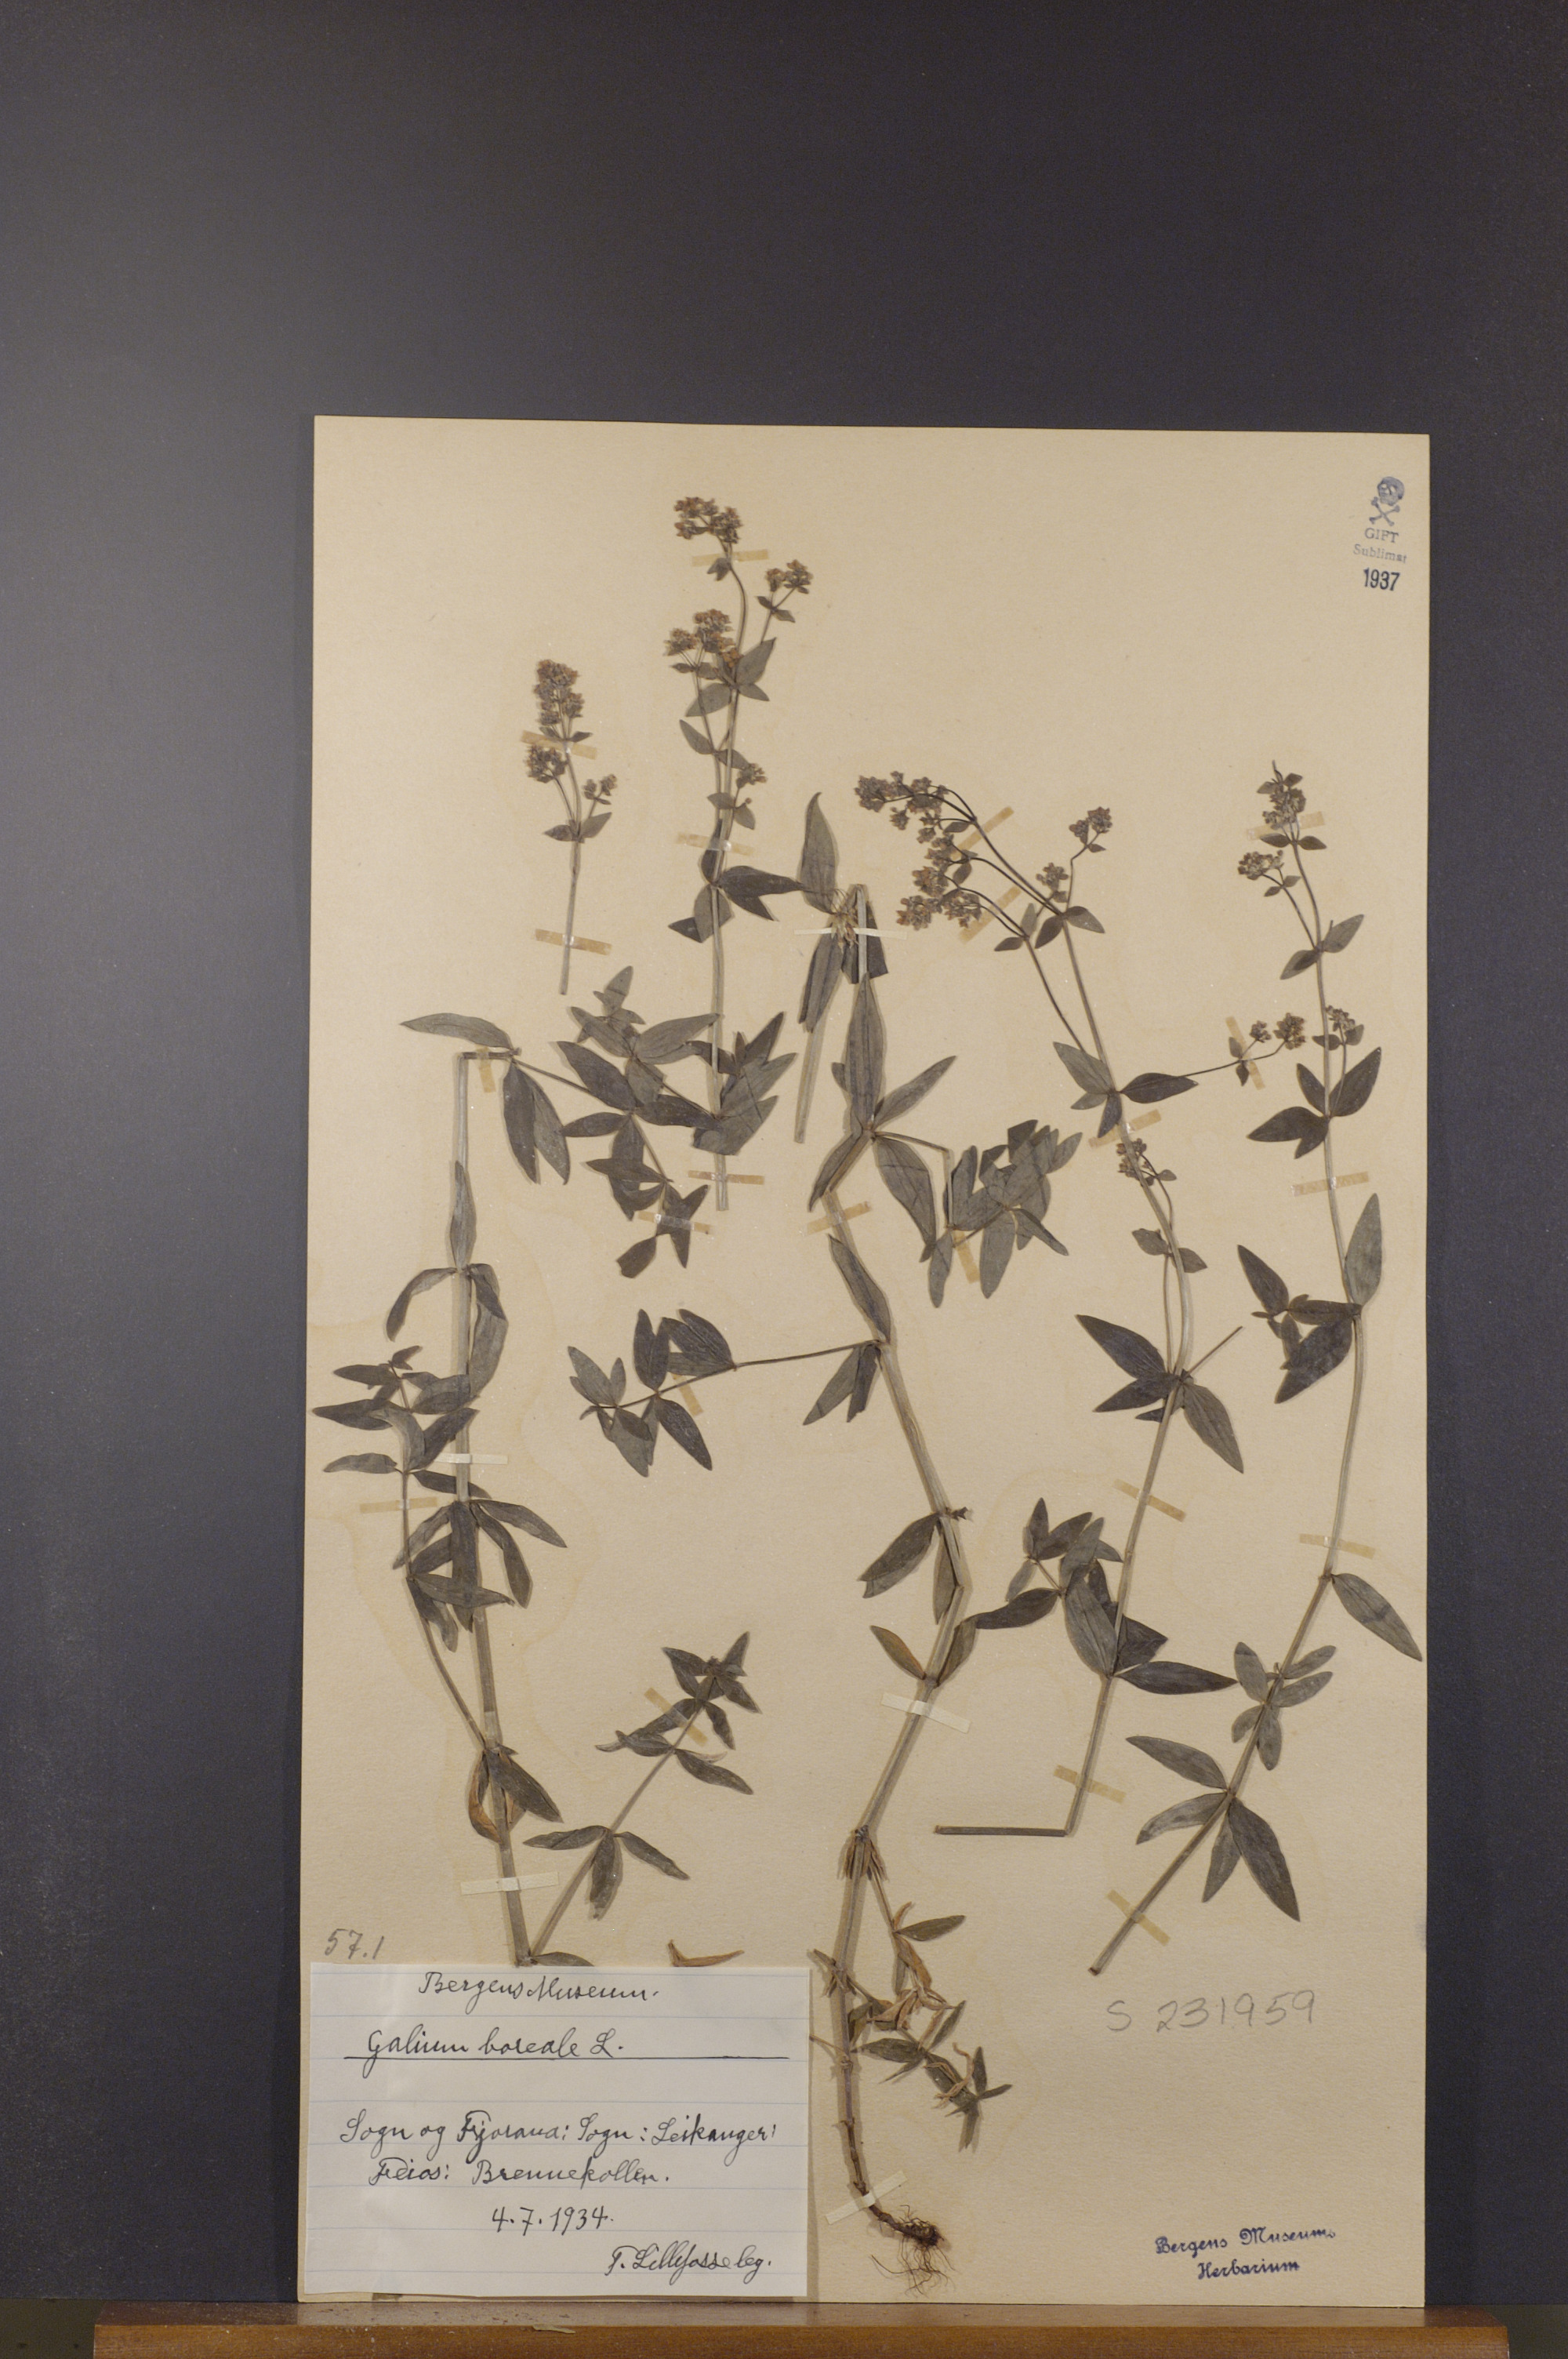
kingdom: Plantae
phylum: Tracheophyta
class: Magnoliopsida
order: Gentianales
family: Rubiaceae
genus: Galium
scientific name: Galium boreale
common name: Northern bedstraw
